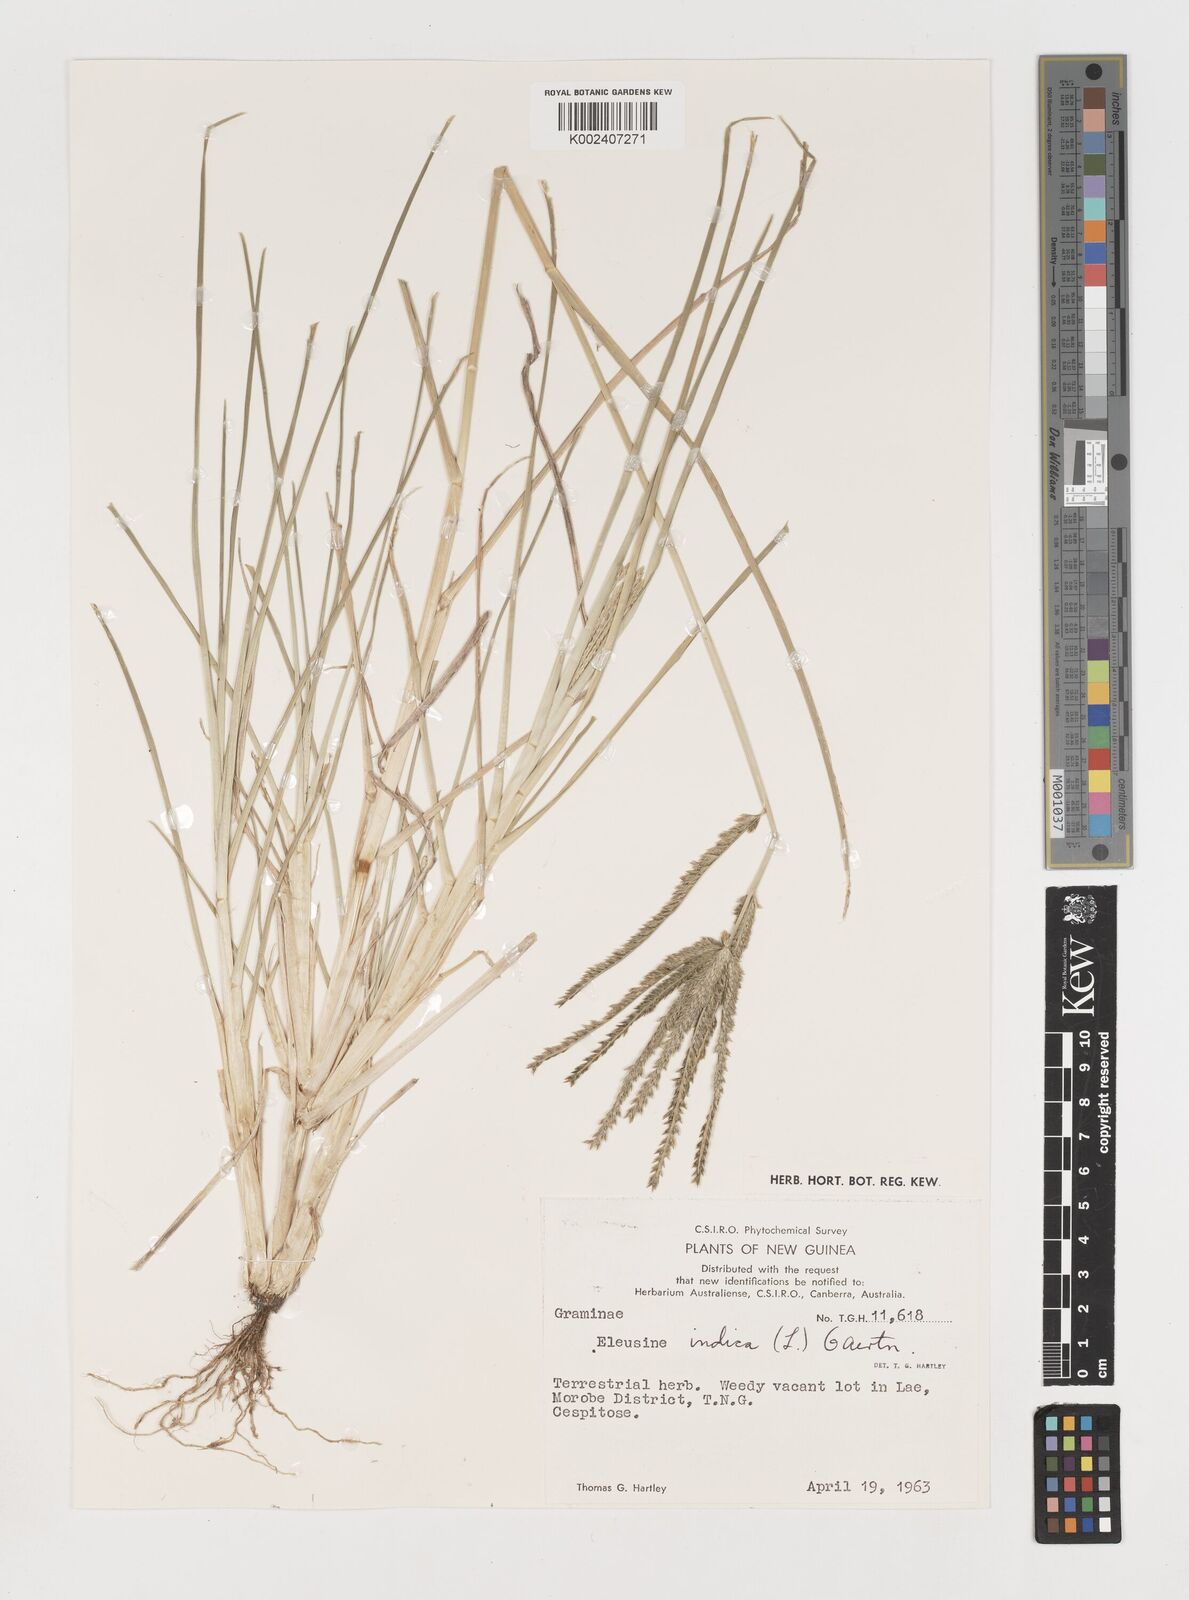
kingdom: Plantae
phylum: Tracheophyta
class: Liliopsida
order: Poales
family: Poaceae
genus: Eleusine
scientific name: Eleusine indica
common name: Yard-grass
